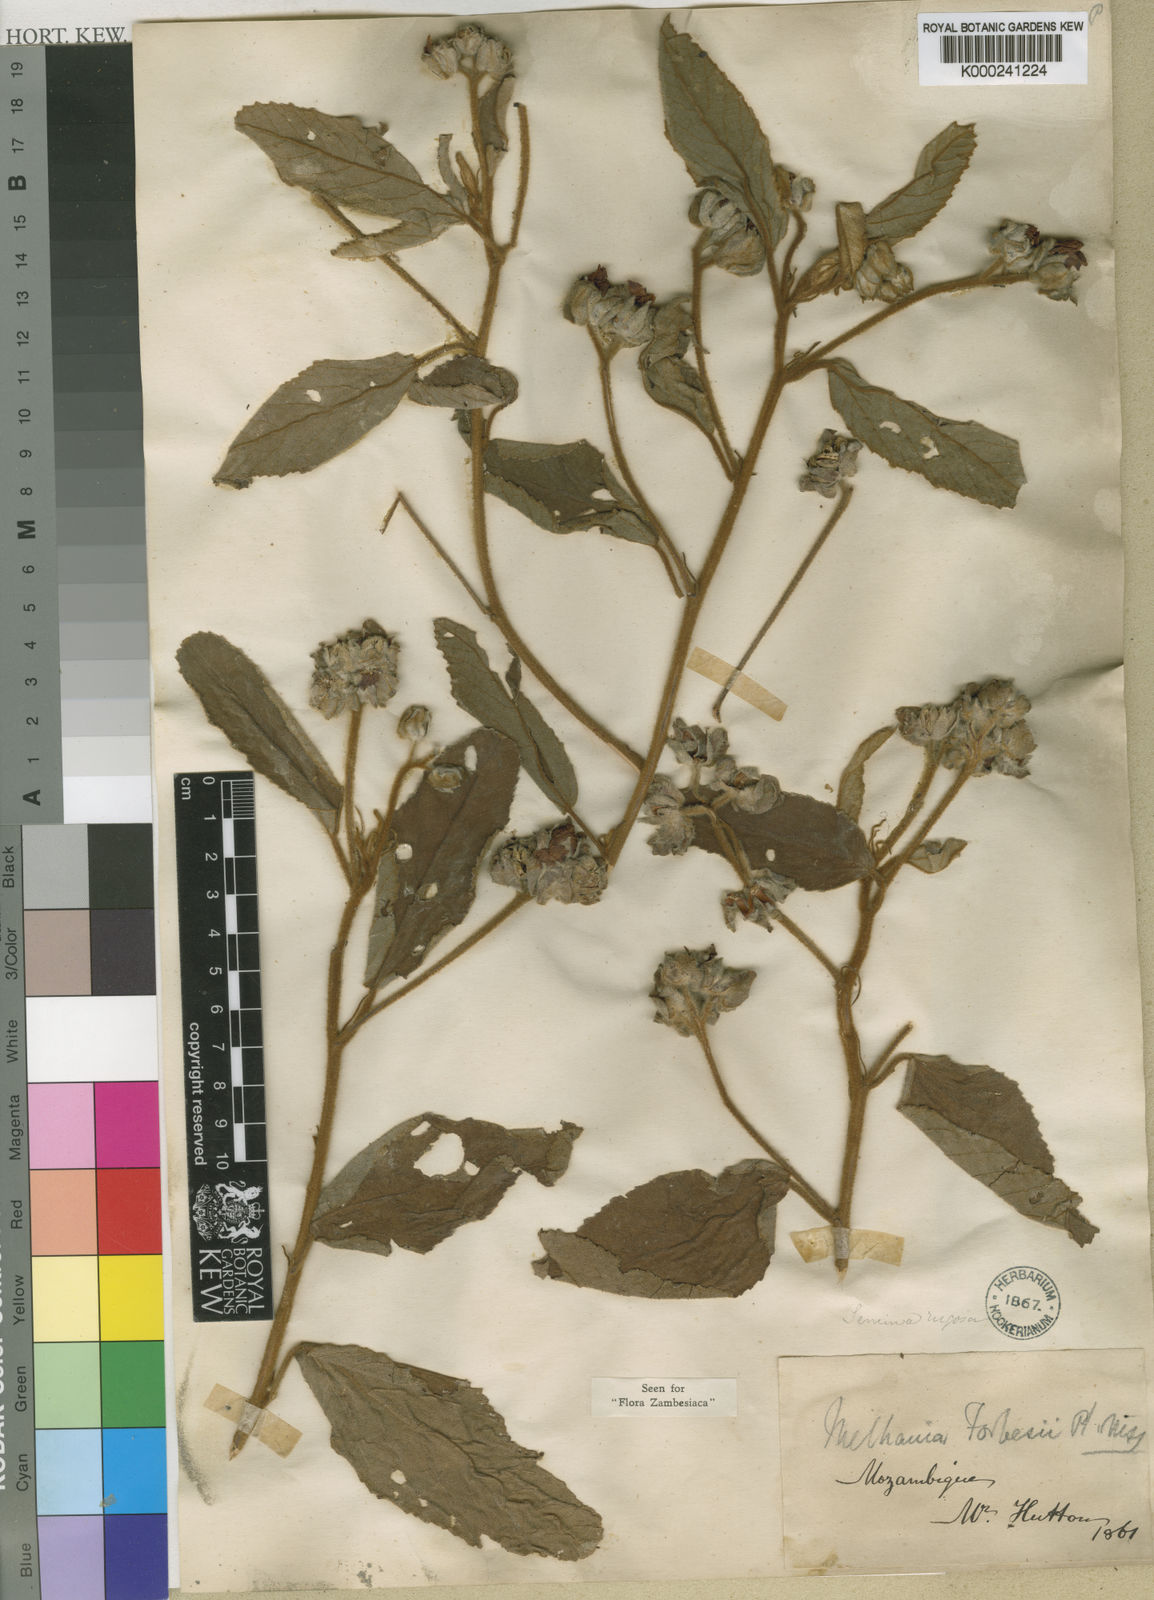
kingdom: Plantae
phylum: Tracheophyta
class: Magnoliopsida
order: Malvales
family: Malvaceae
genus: Melhania
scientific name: Melhania acuminata
